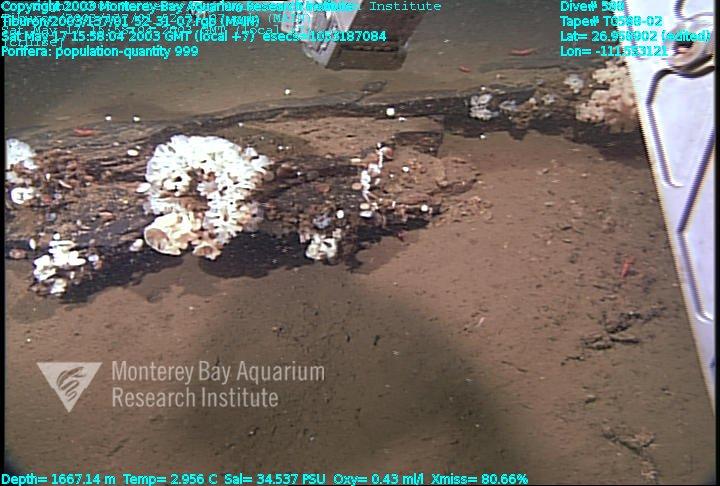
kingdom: Animalia
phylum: Porifera
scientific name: Porifera
